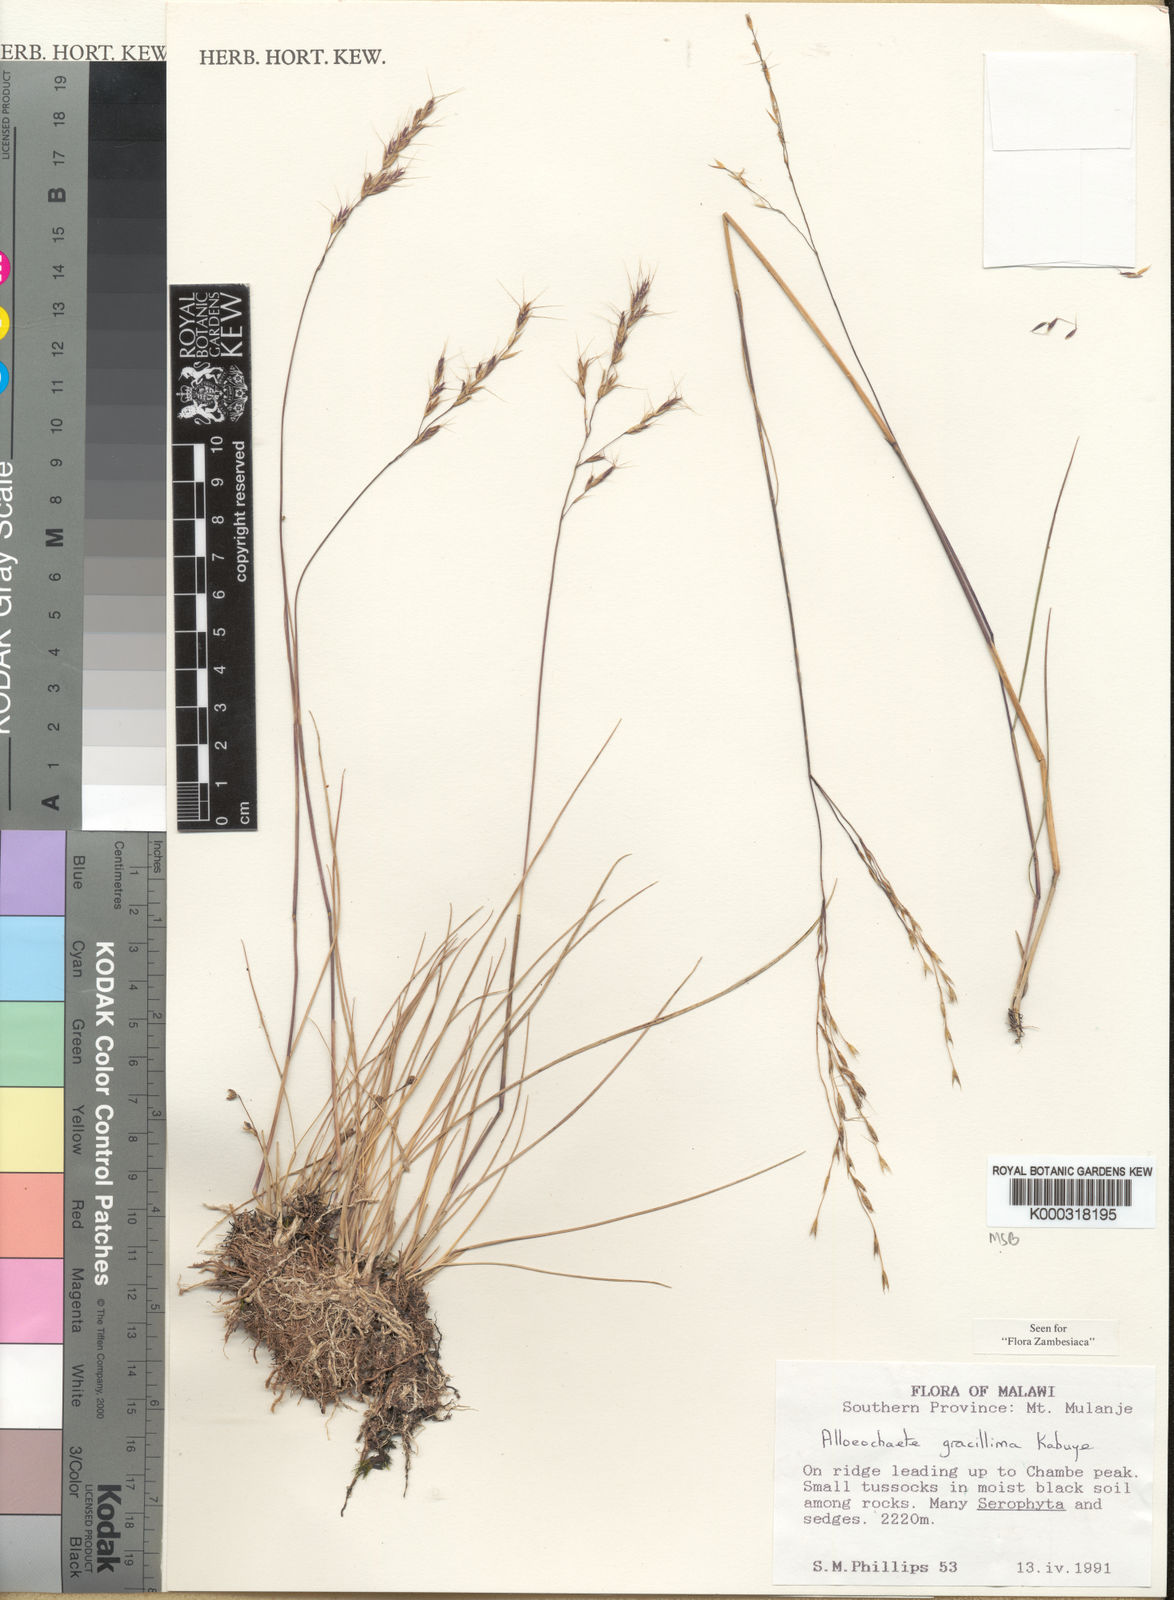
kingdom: Plantae
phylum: Tracheophyta
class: Liliopsida
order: Poales
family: Poaceae
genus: Alloeochaete
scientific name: Alloeochaete gracillima
